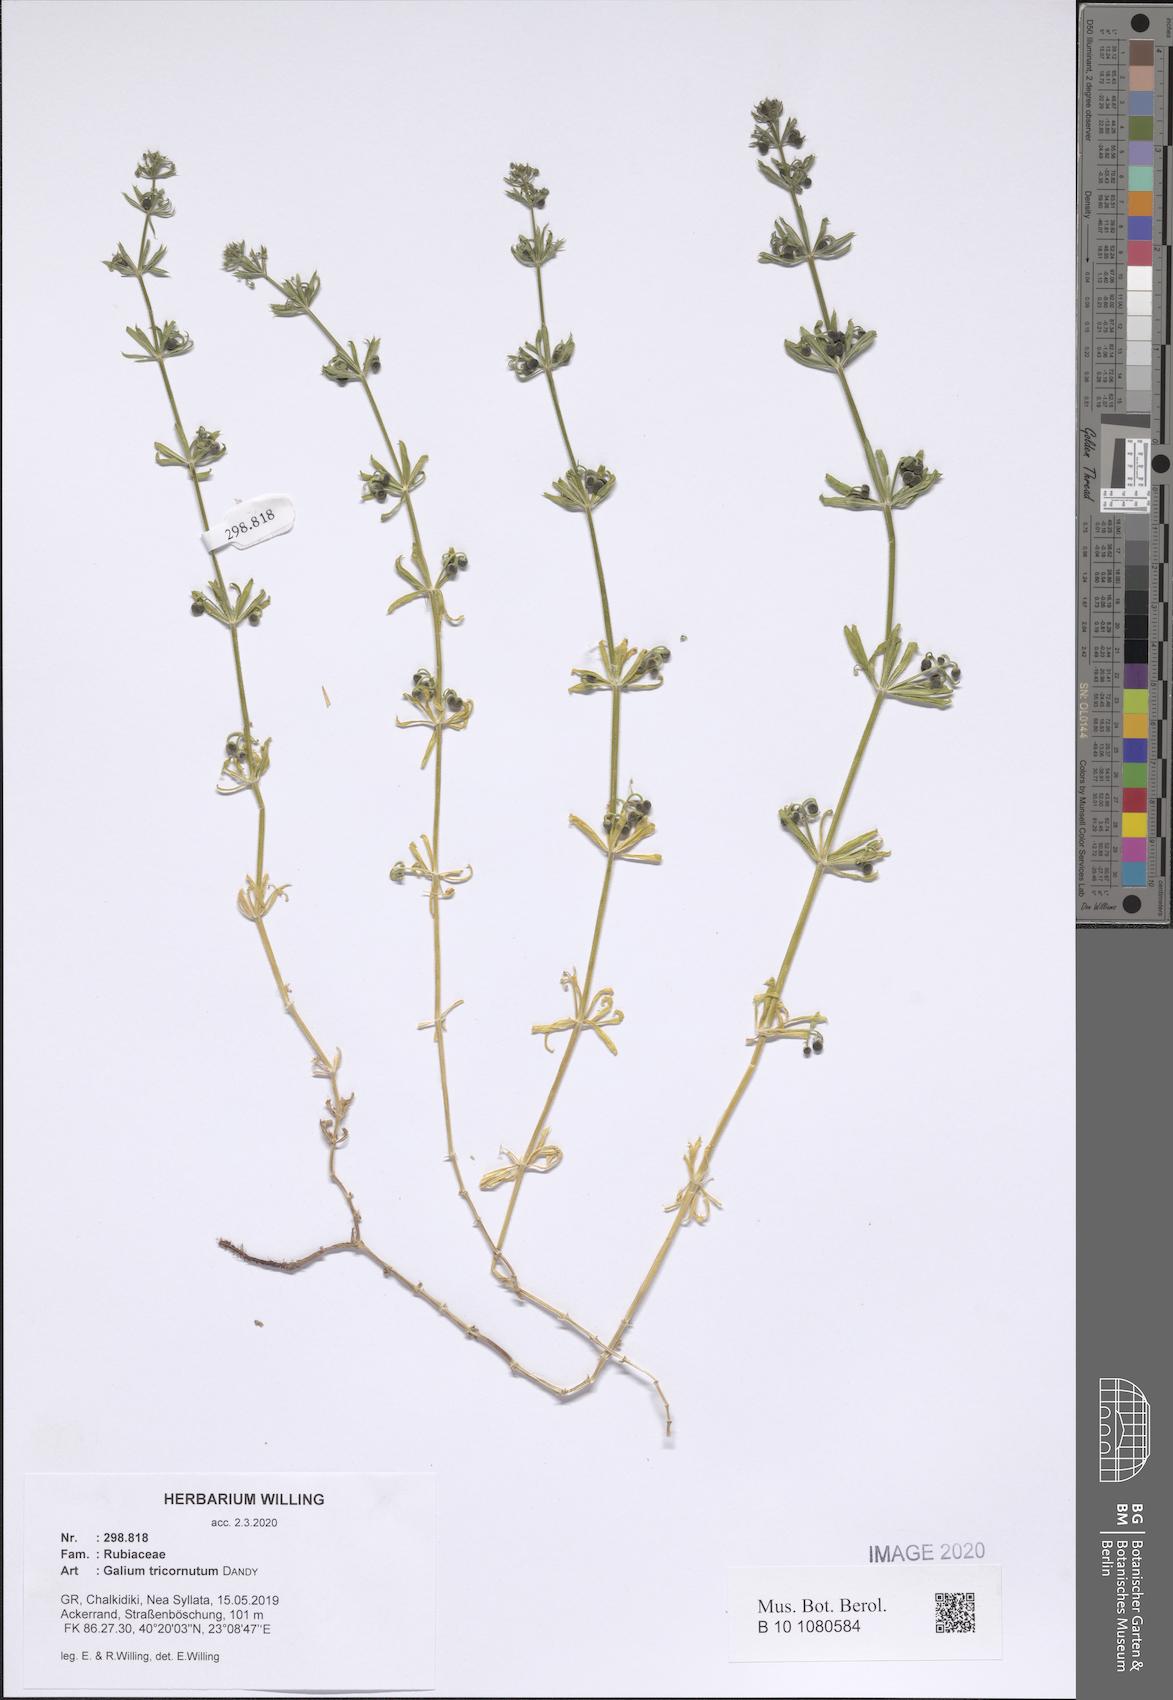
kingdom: Plantae
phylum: Tracheophyta
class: Magnoliopsida
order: Gentianales
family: Rubiaceae
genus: Galium
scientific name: Galium tricornutum
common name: Corn cleavers
